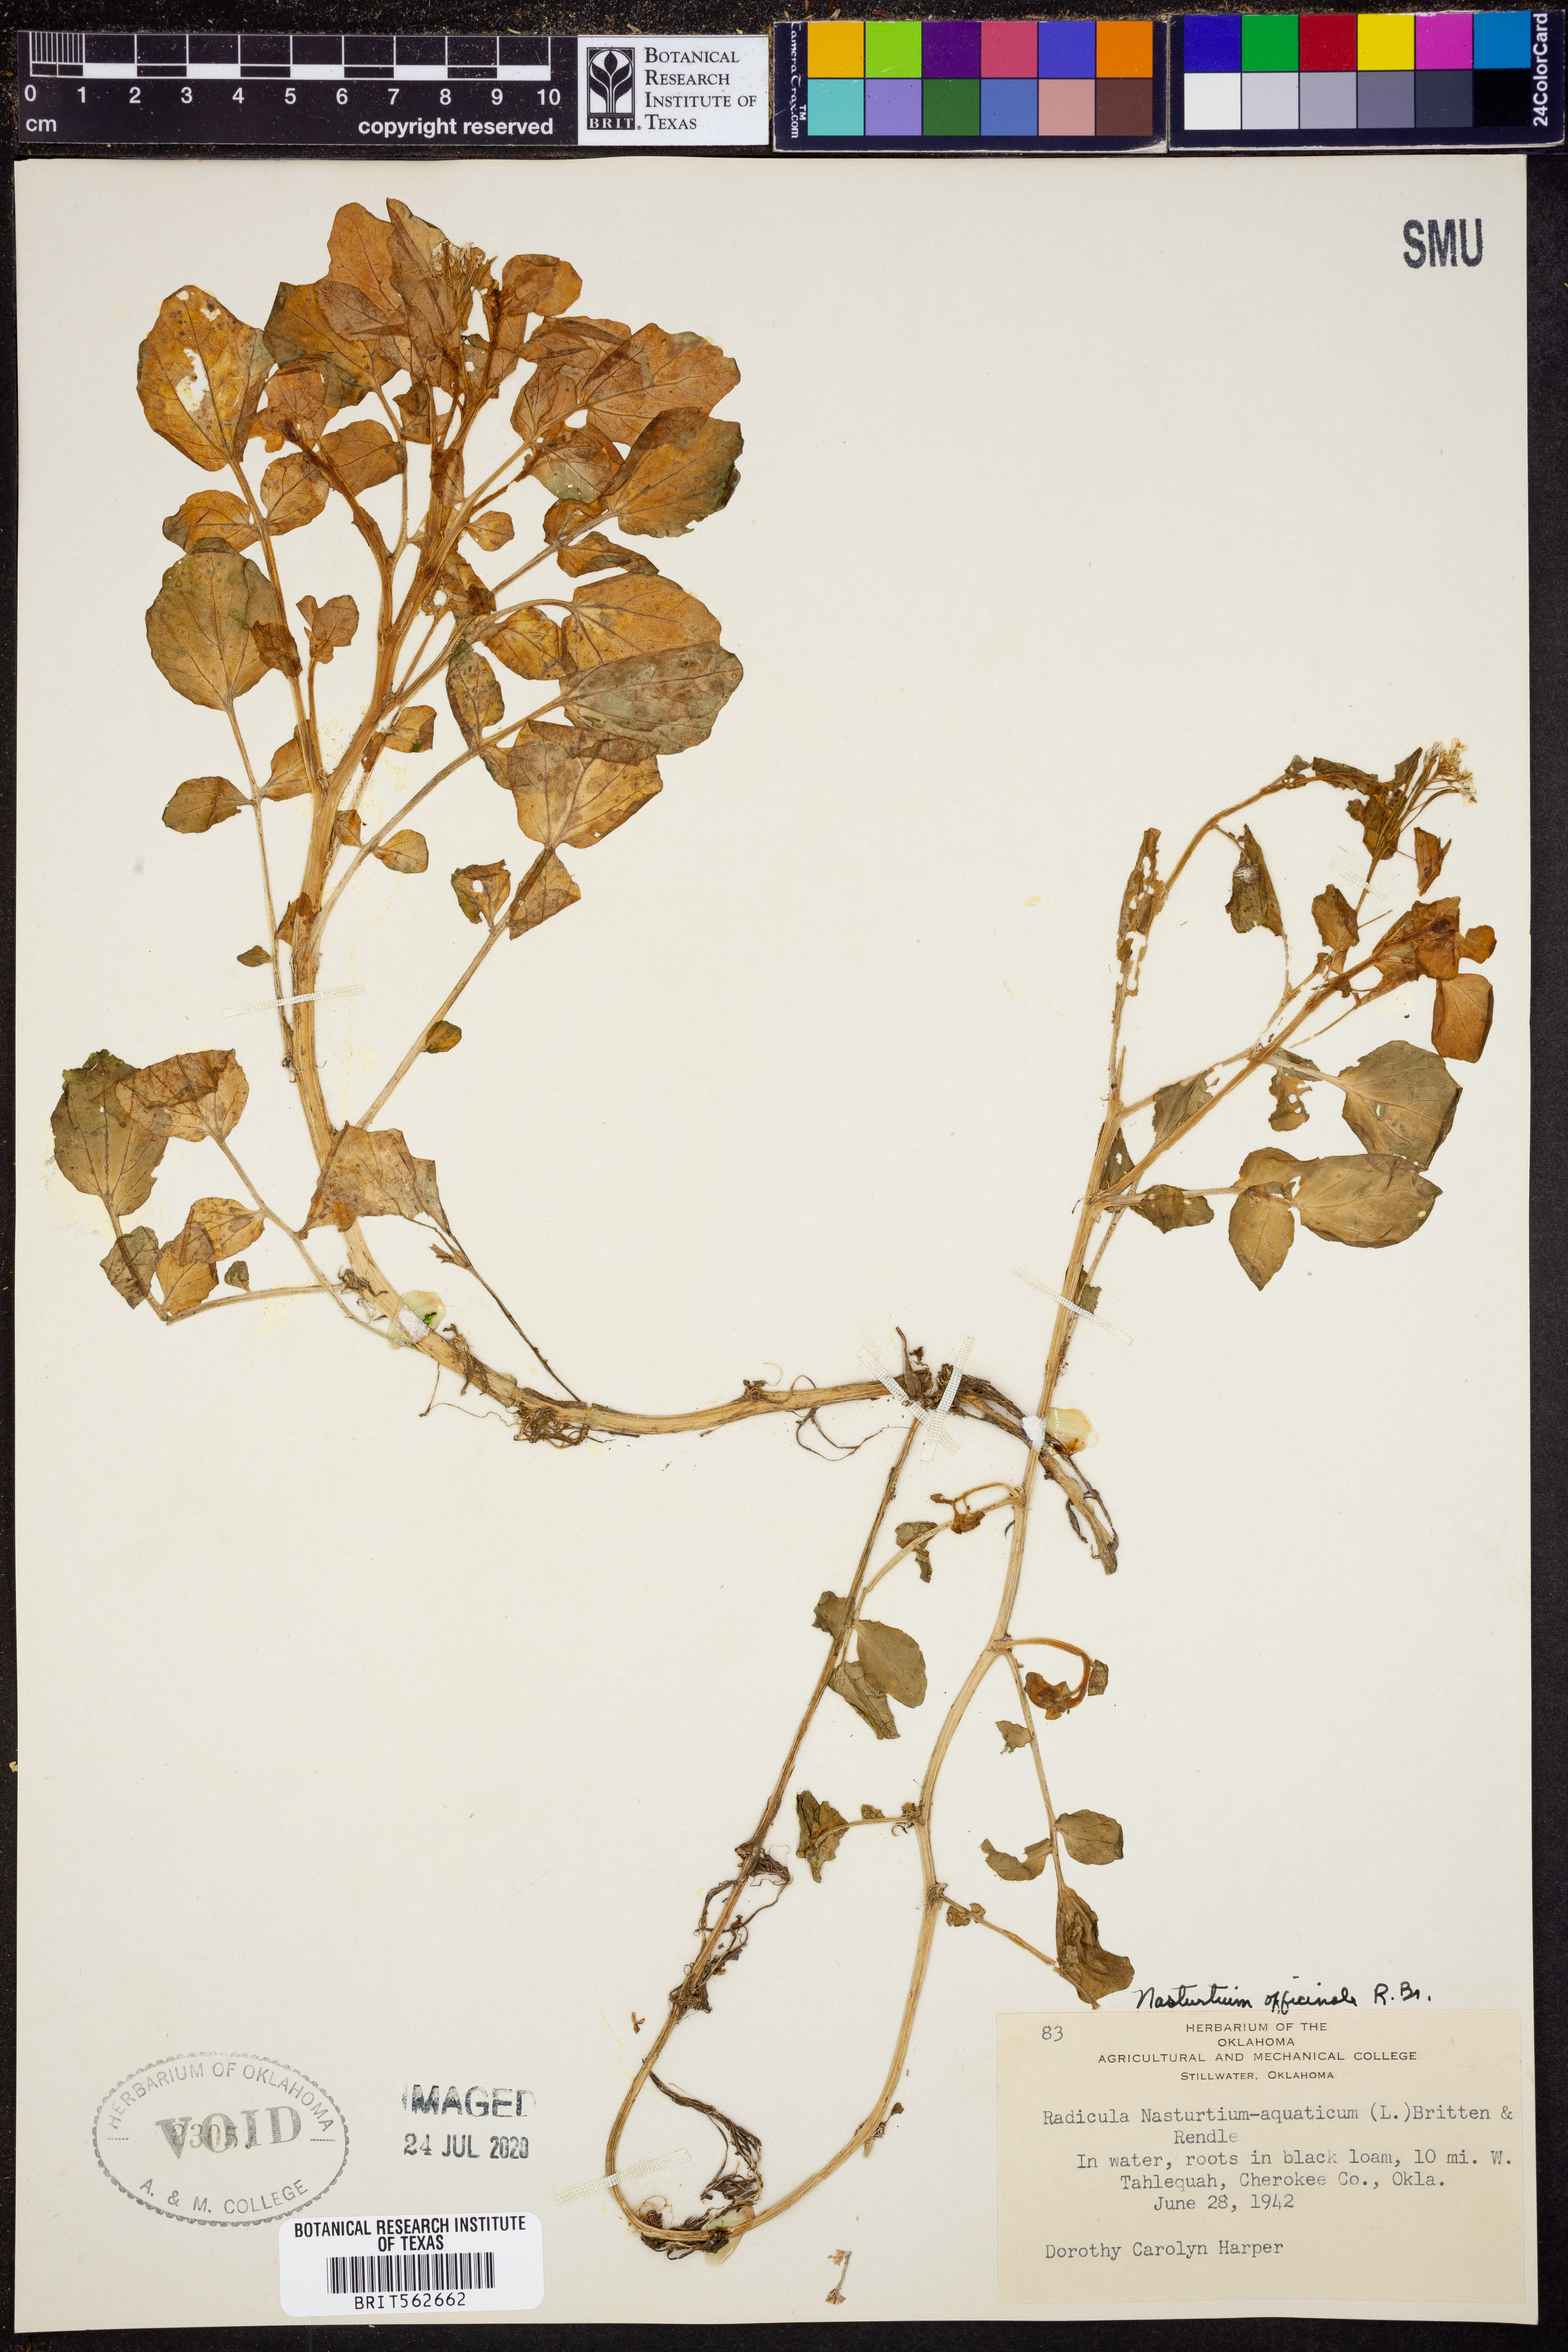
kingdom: Plantae
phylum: Tracheophyta
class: Magnoliopsida
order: Brassicales
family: Brassicaceae
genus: Nasturtium
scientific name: Nasturtium officinale
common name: Watercress
